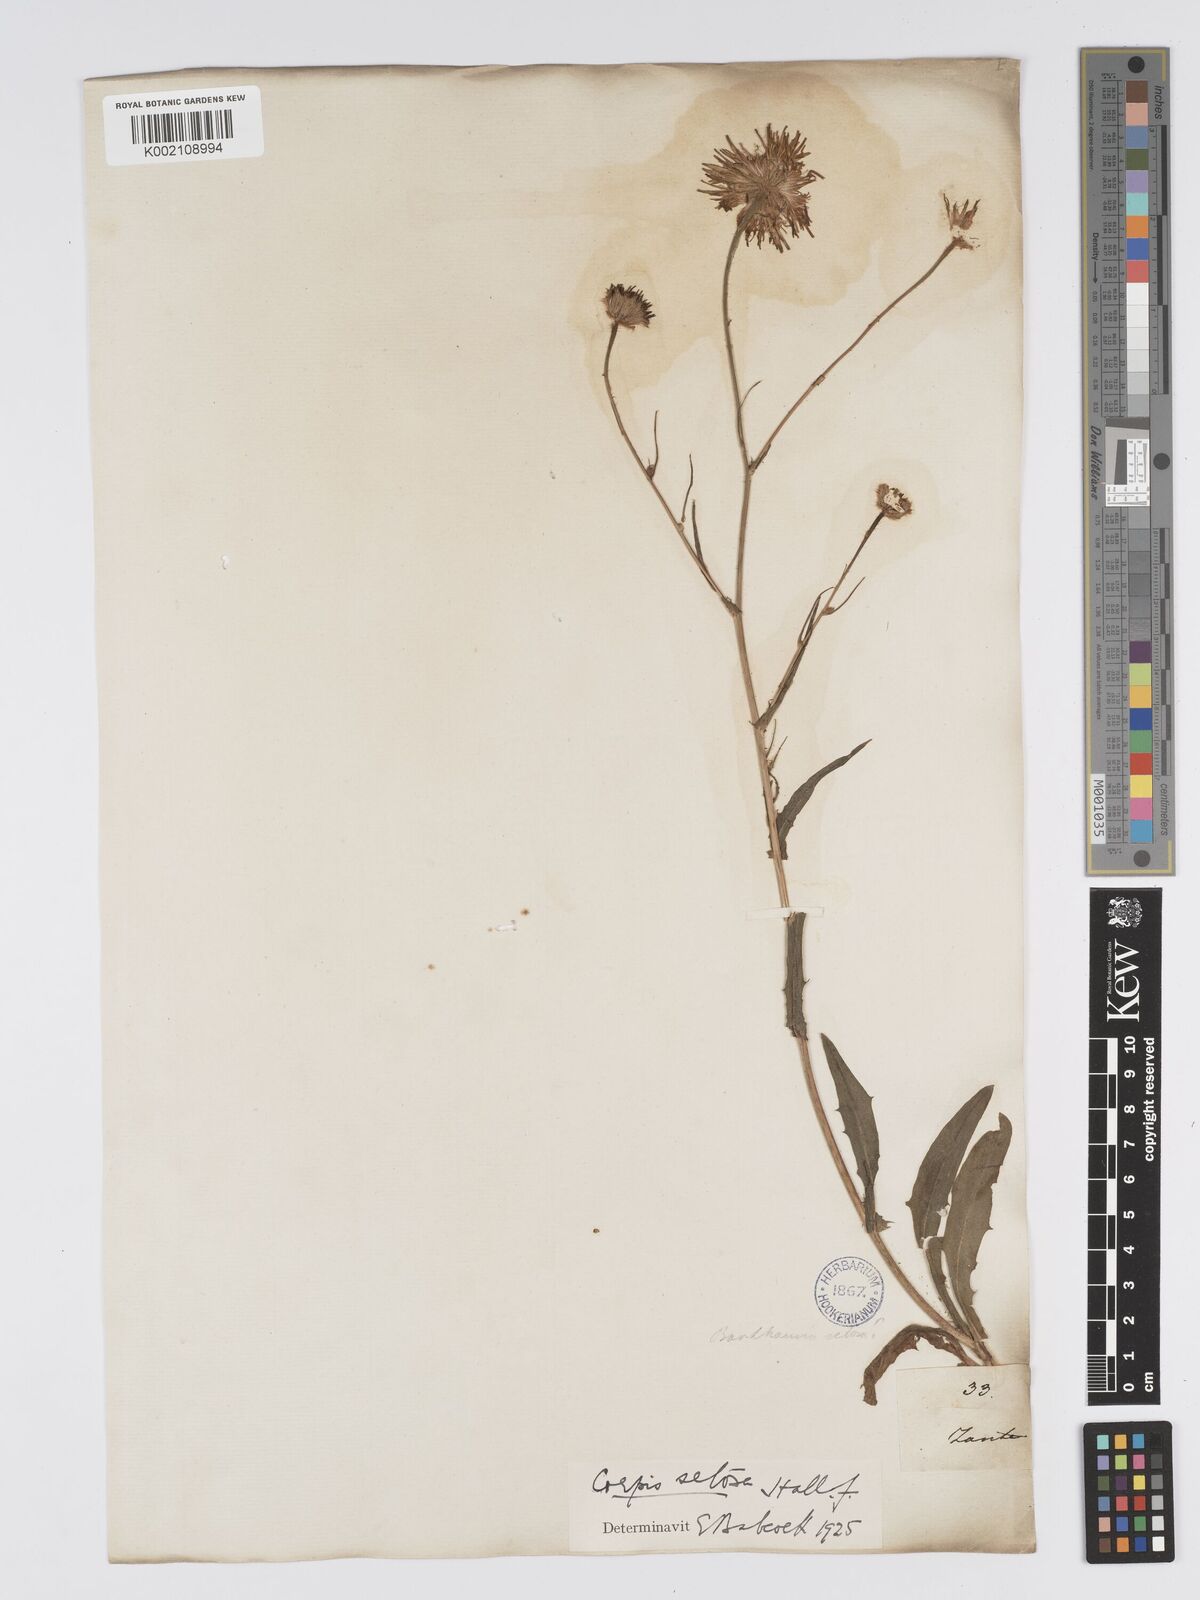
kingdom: Plantae
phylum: Tracheophyta
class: Magnoliopsida
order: Asterales
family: Asteraceae
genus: Crepis
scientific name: Crepis setosa
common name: Bristly hawk's-beard
